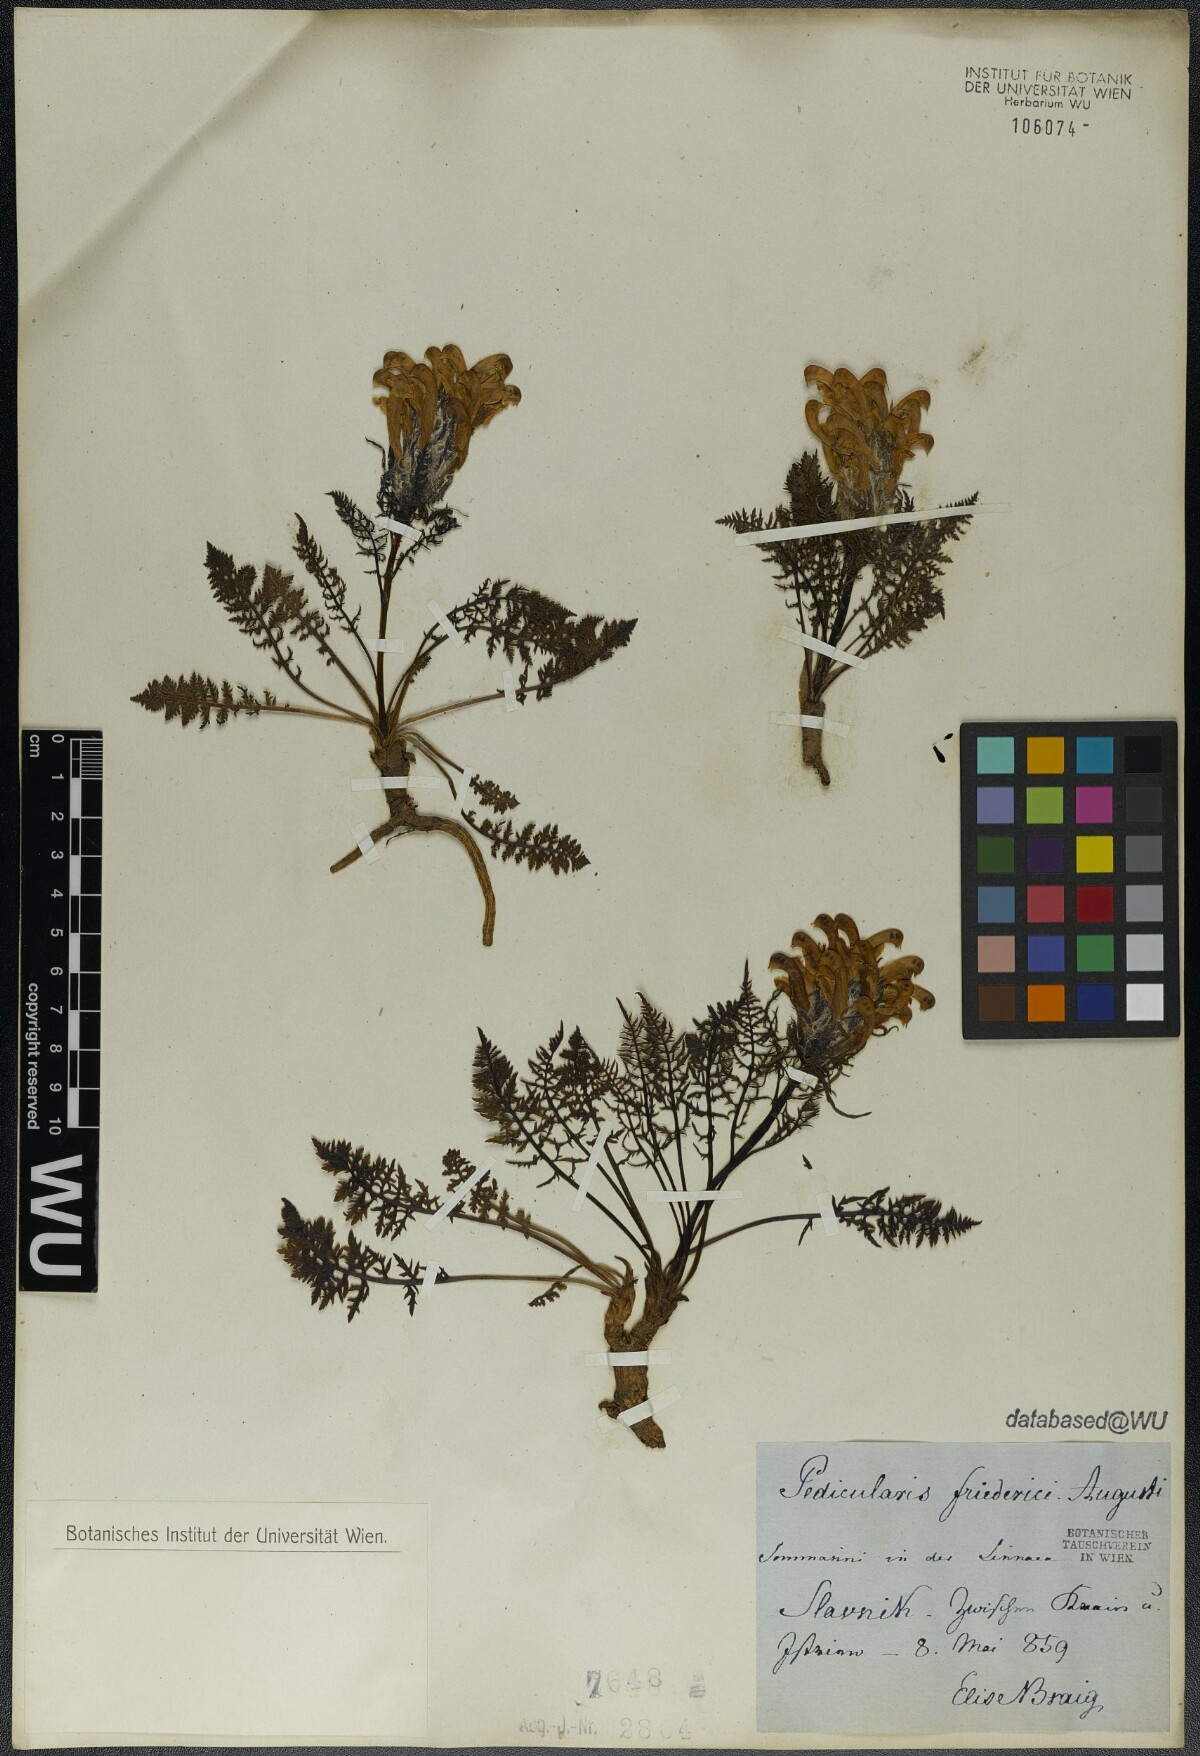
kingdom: Plantae
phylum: Tracheophyta
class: Magnoliopsida
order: Lamiales
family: Orobanchaceae
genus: Pedicularis
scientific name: Pedicularis friderici-augusti
